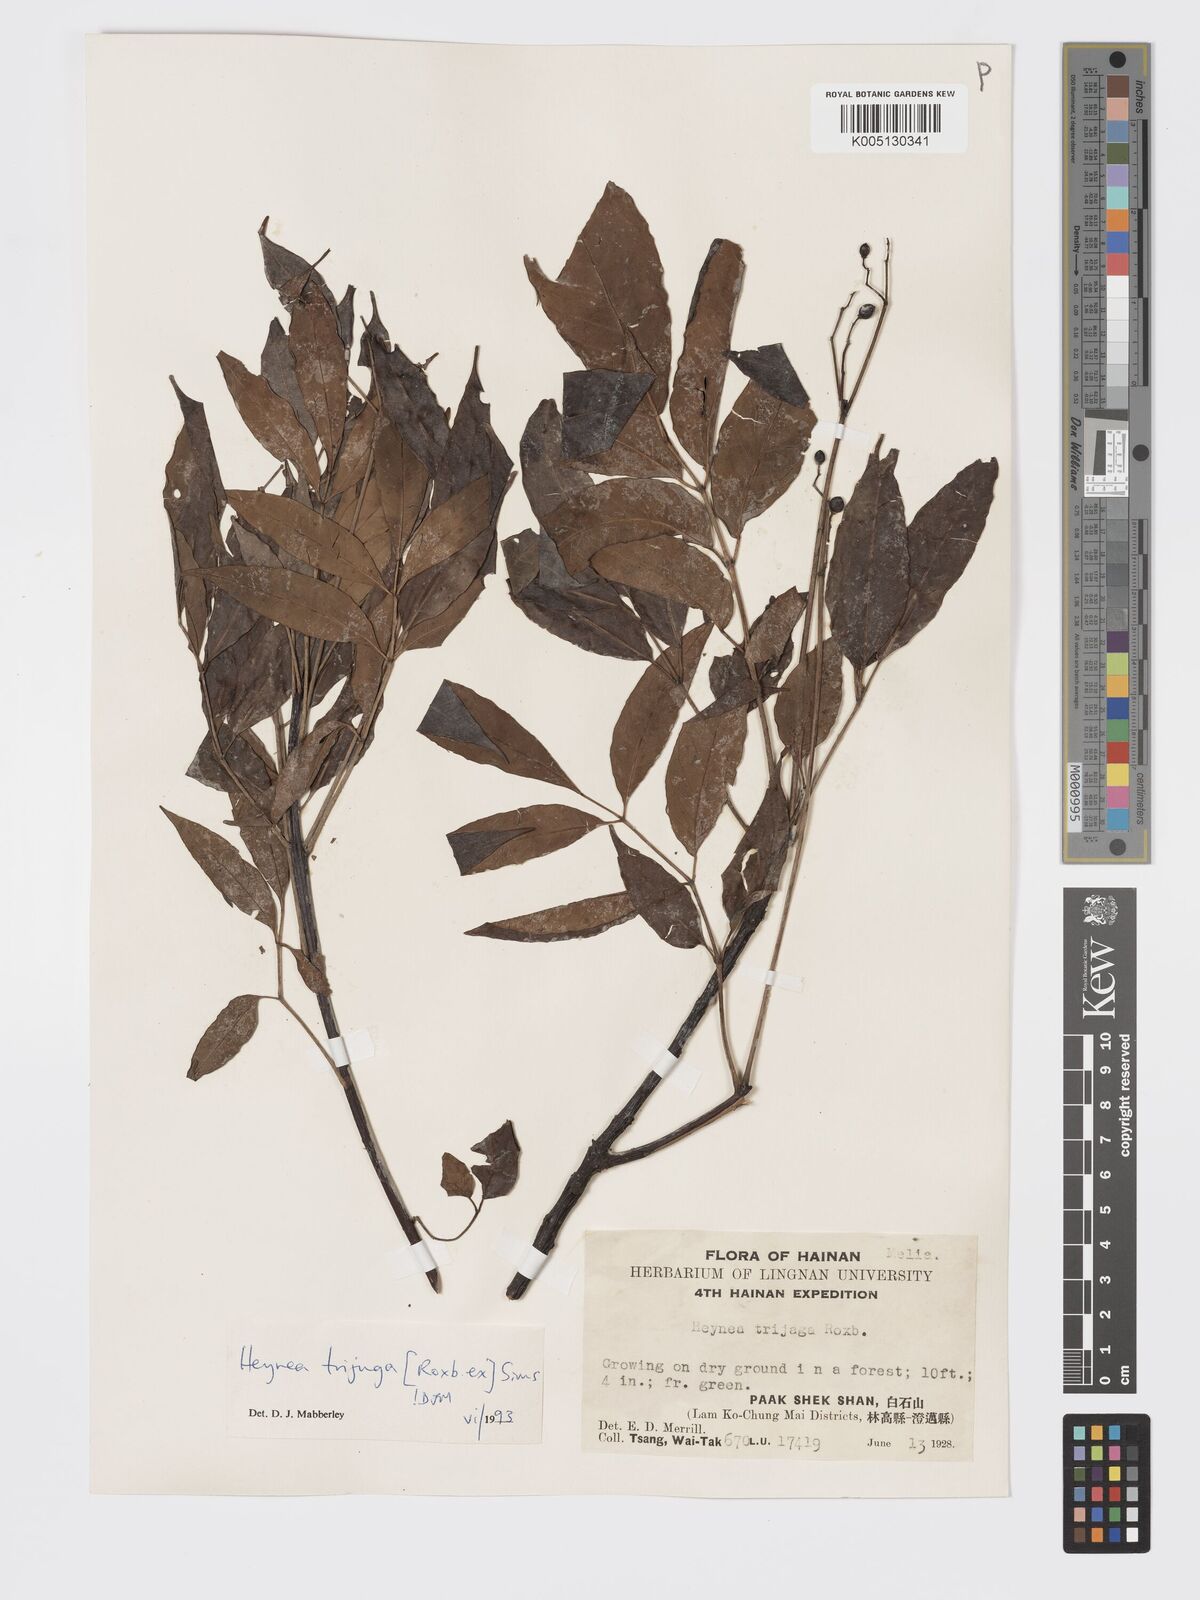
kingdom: Plantae
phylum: Tracheophyta
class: Magnoliopsida
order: Sapindales
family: Meliaceae
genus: Heynea
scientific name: Heynea trijuga
